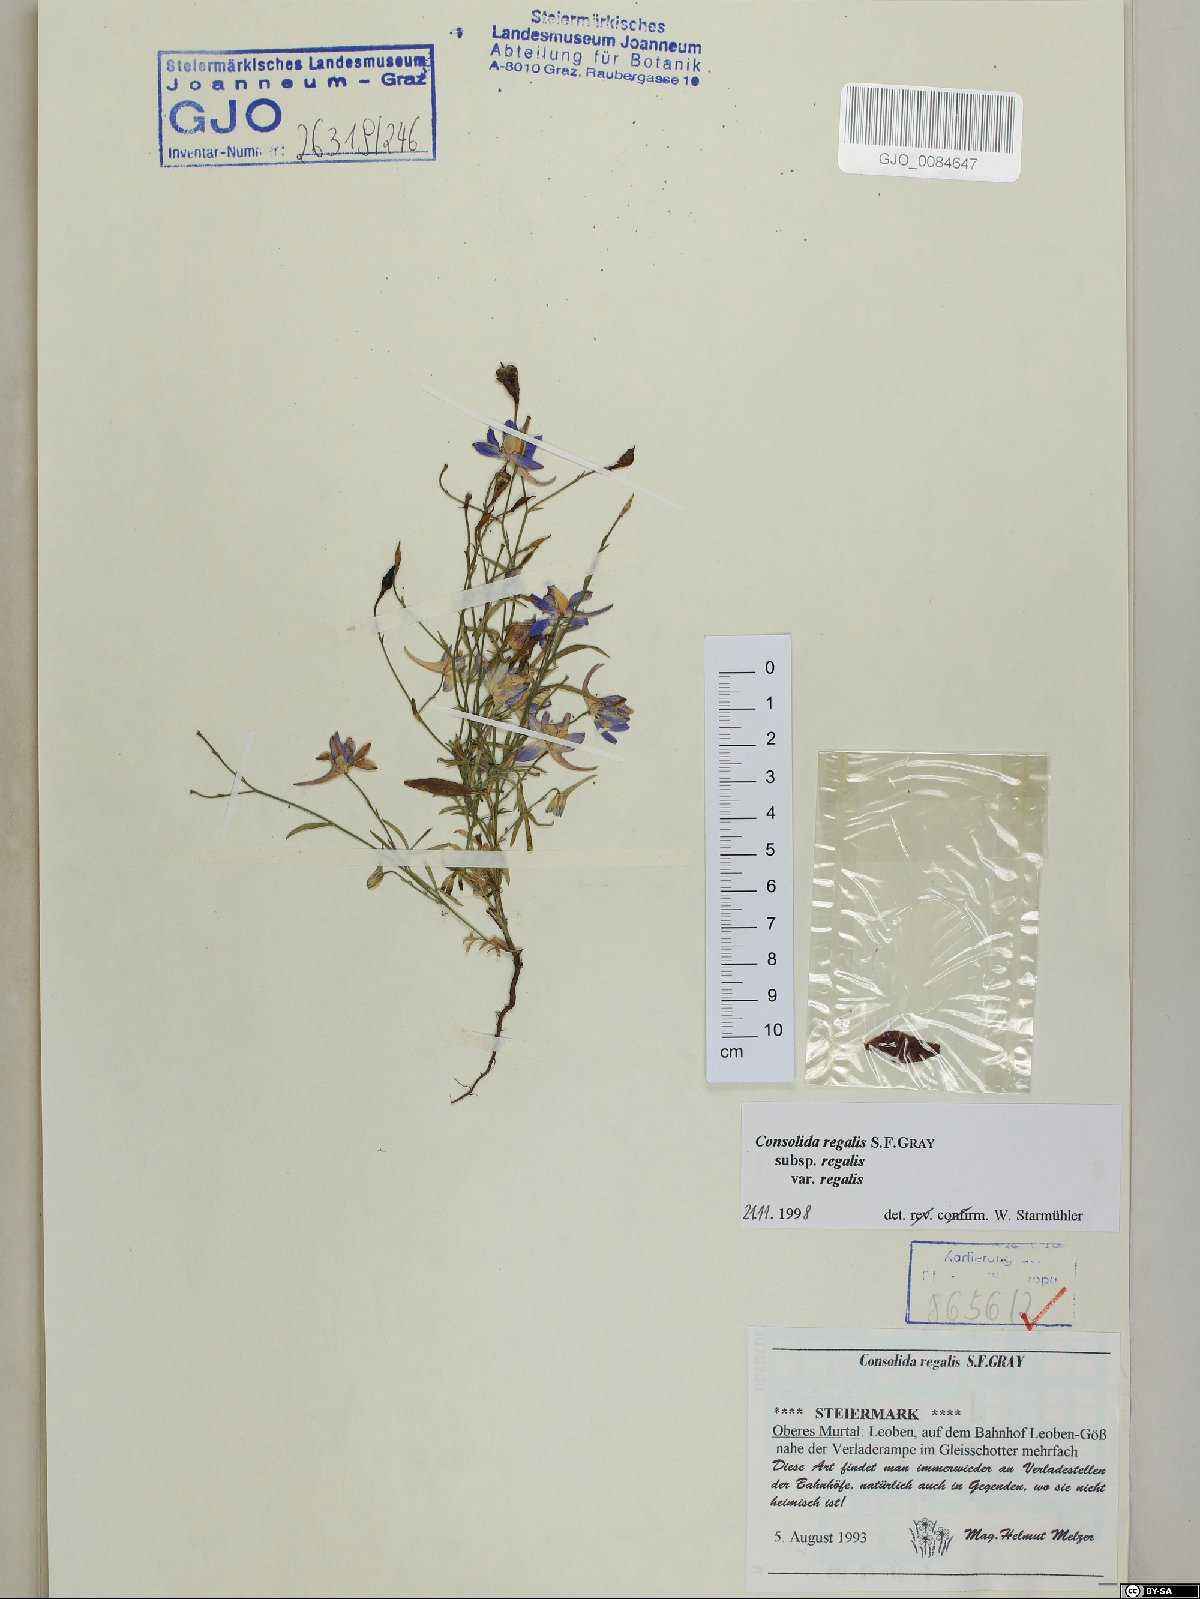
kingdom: Plantae
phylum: Tracheophyta
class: Magnoliopsida
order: Ranunculales
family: Ranunculaceae
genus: Delphinium
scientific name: Delphinium consolida
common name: Branching larkspur
